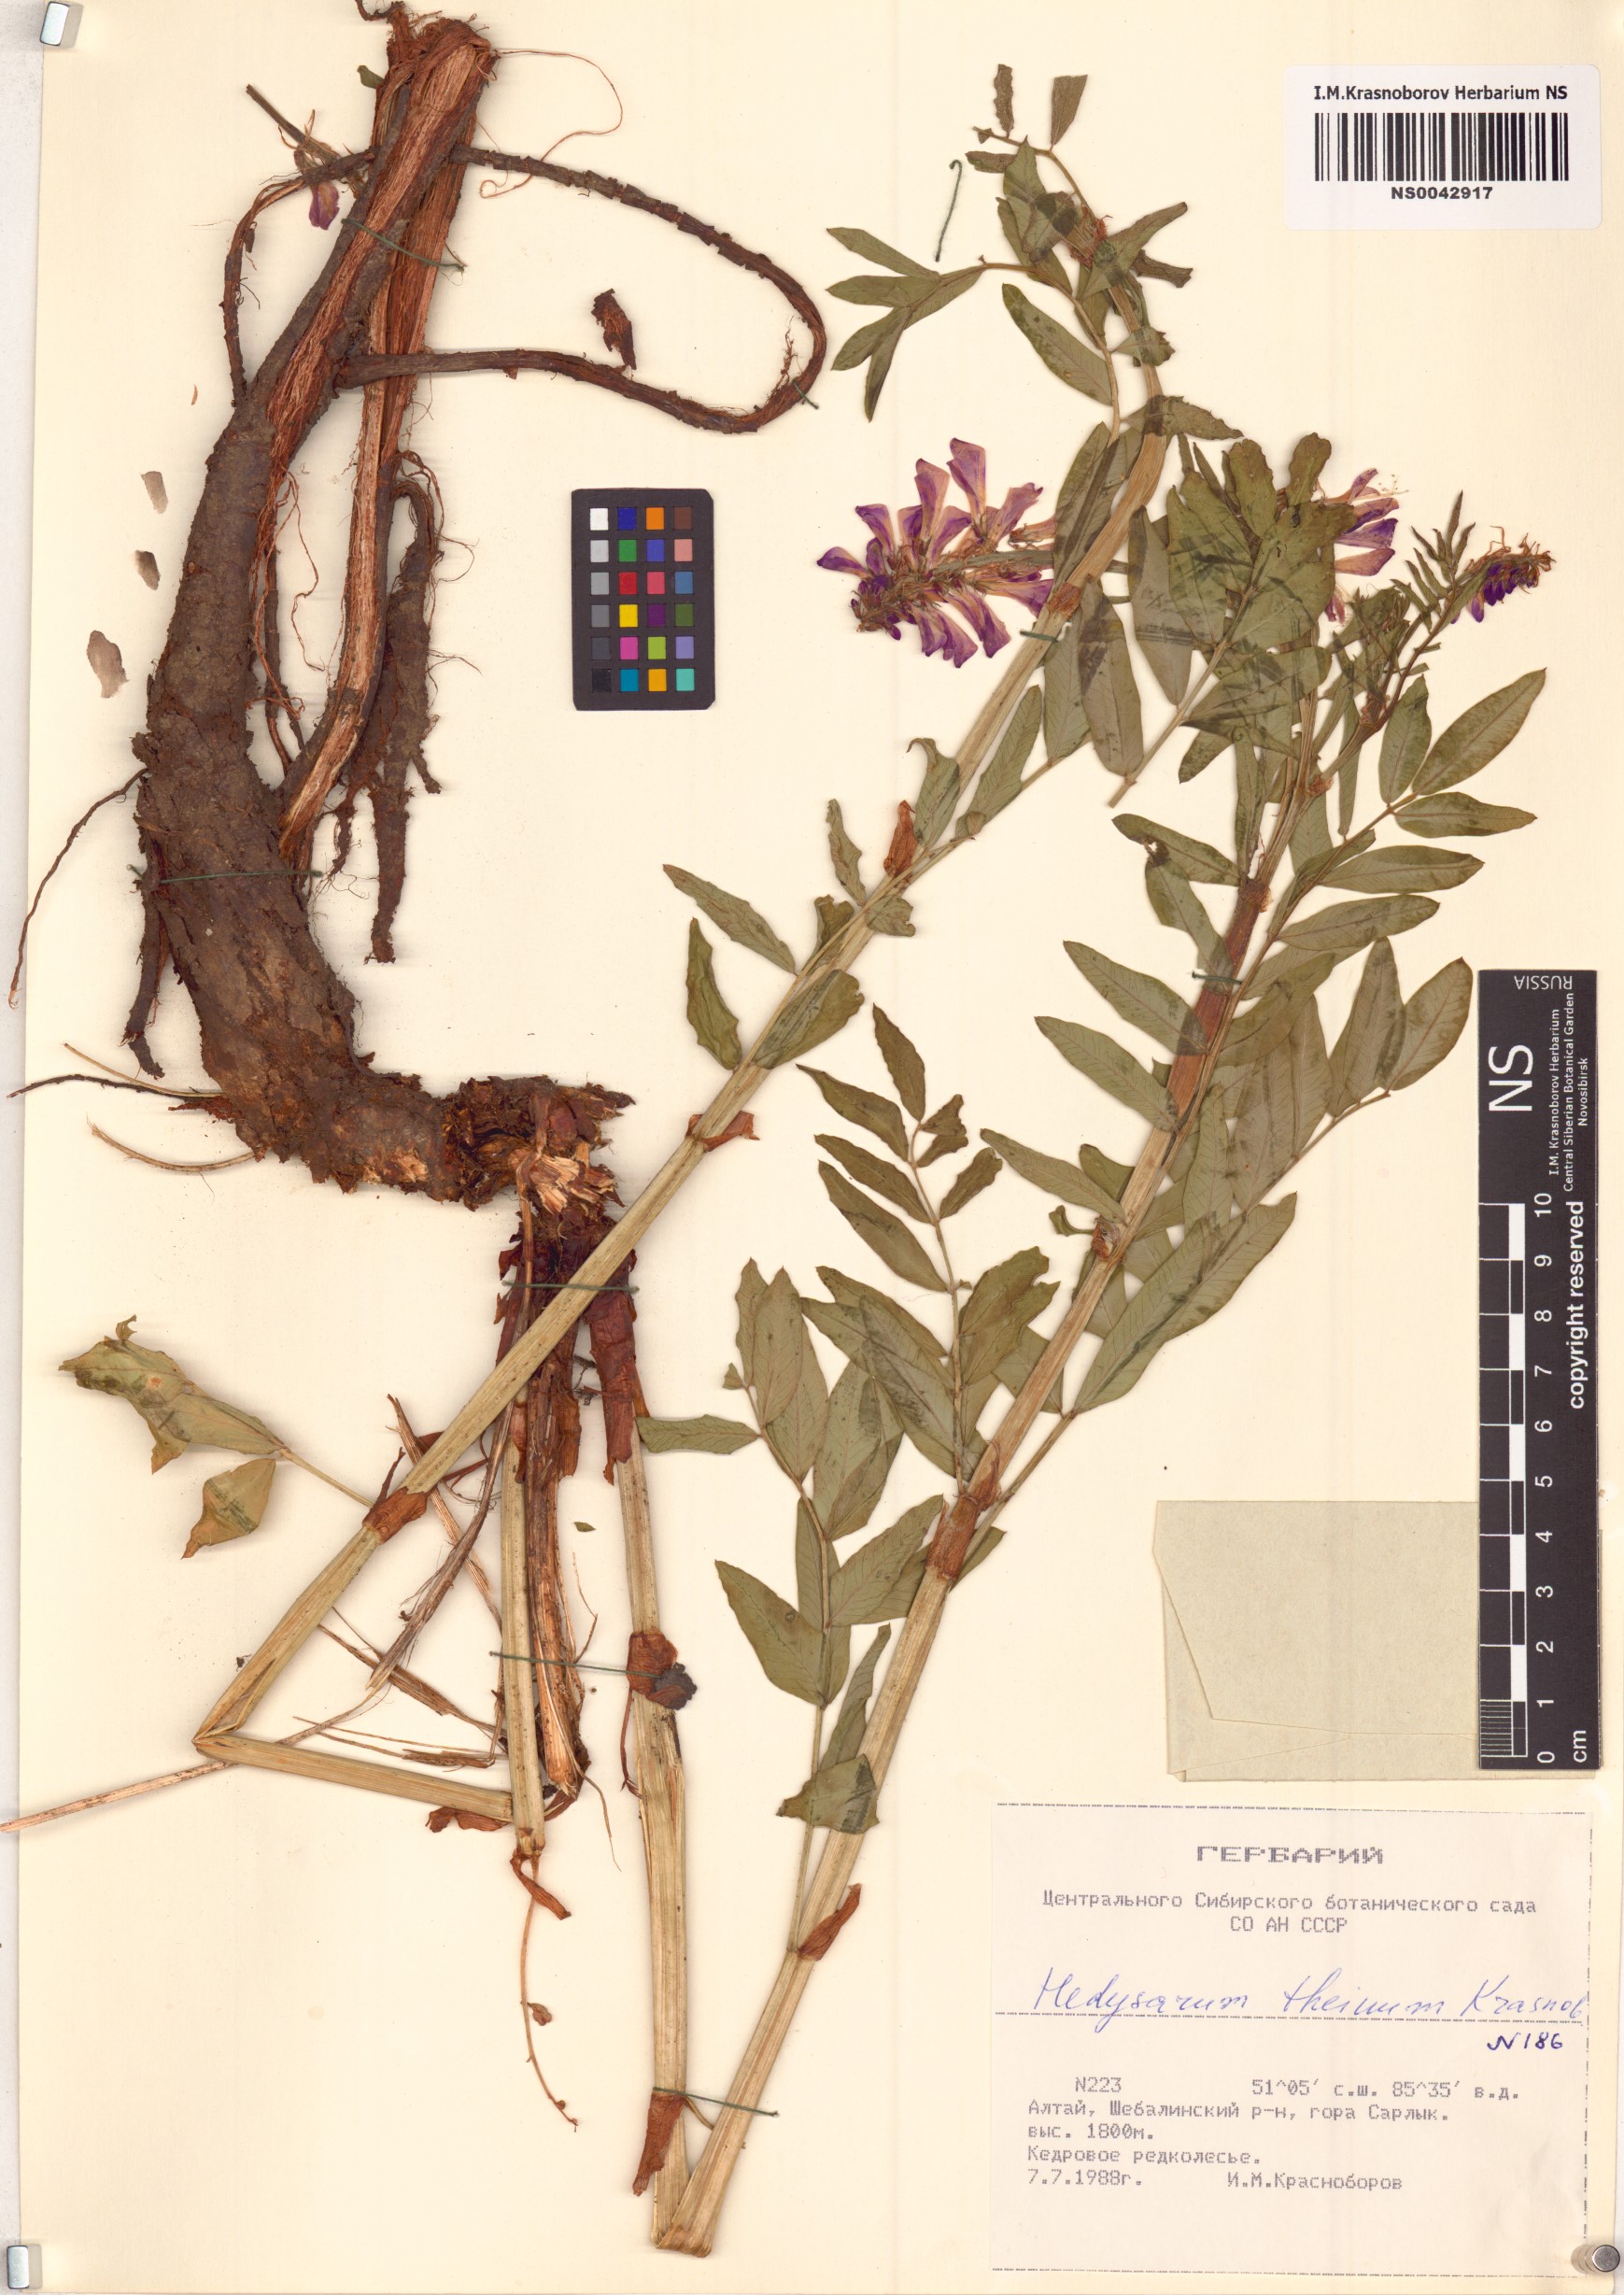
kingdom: Plantae
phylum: Tracheophyta
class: Magnoliopsida
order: Fabales
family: Fabaceae
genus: Hedysarum
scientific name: Hedysarum theinum
